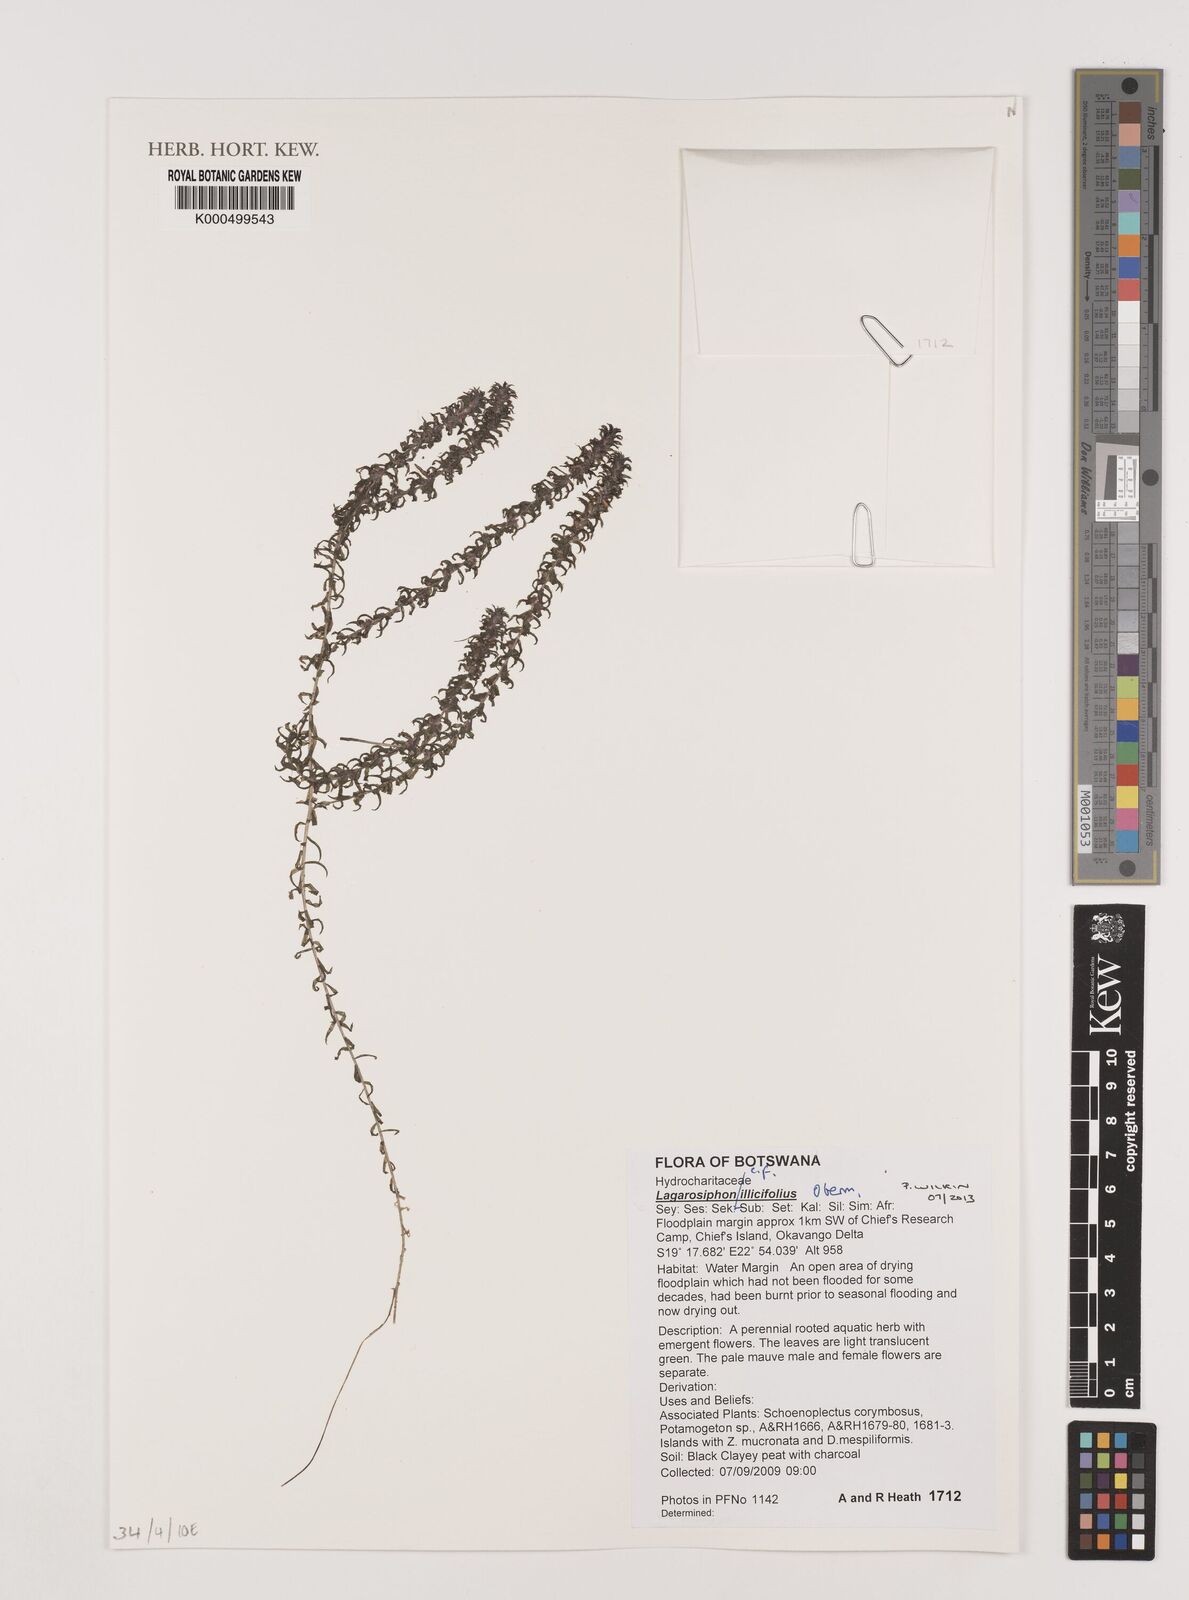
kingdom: Plantae
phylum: Tracheophyta
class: Liliopsida
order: Alismatales
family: Hydrocharitaceae
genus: Lagarosiphon
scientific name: Lagarosiphon ilicifolius
